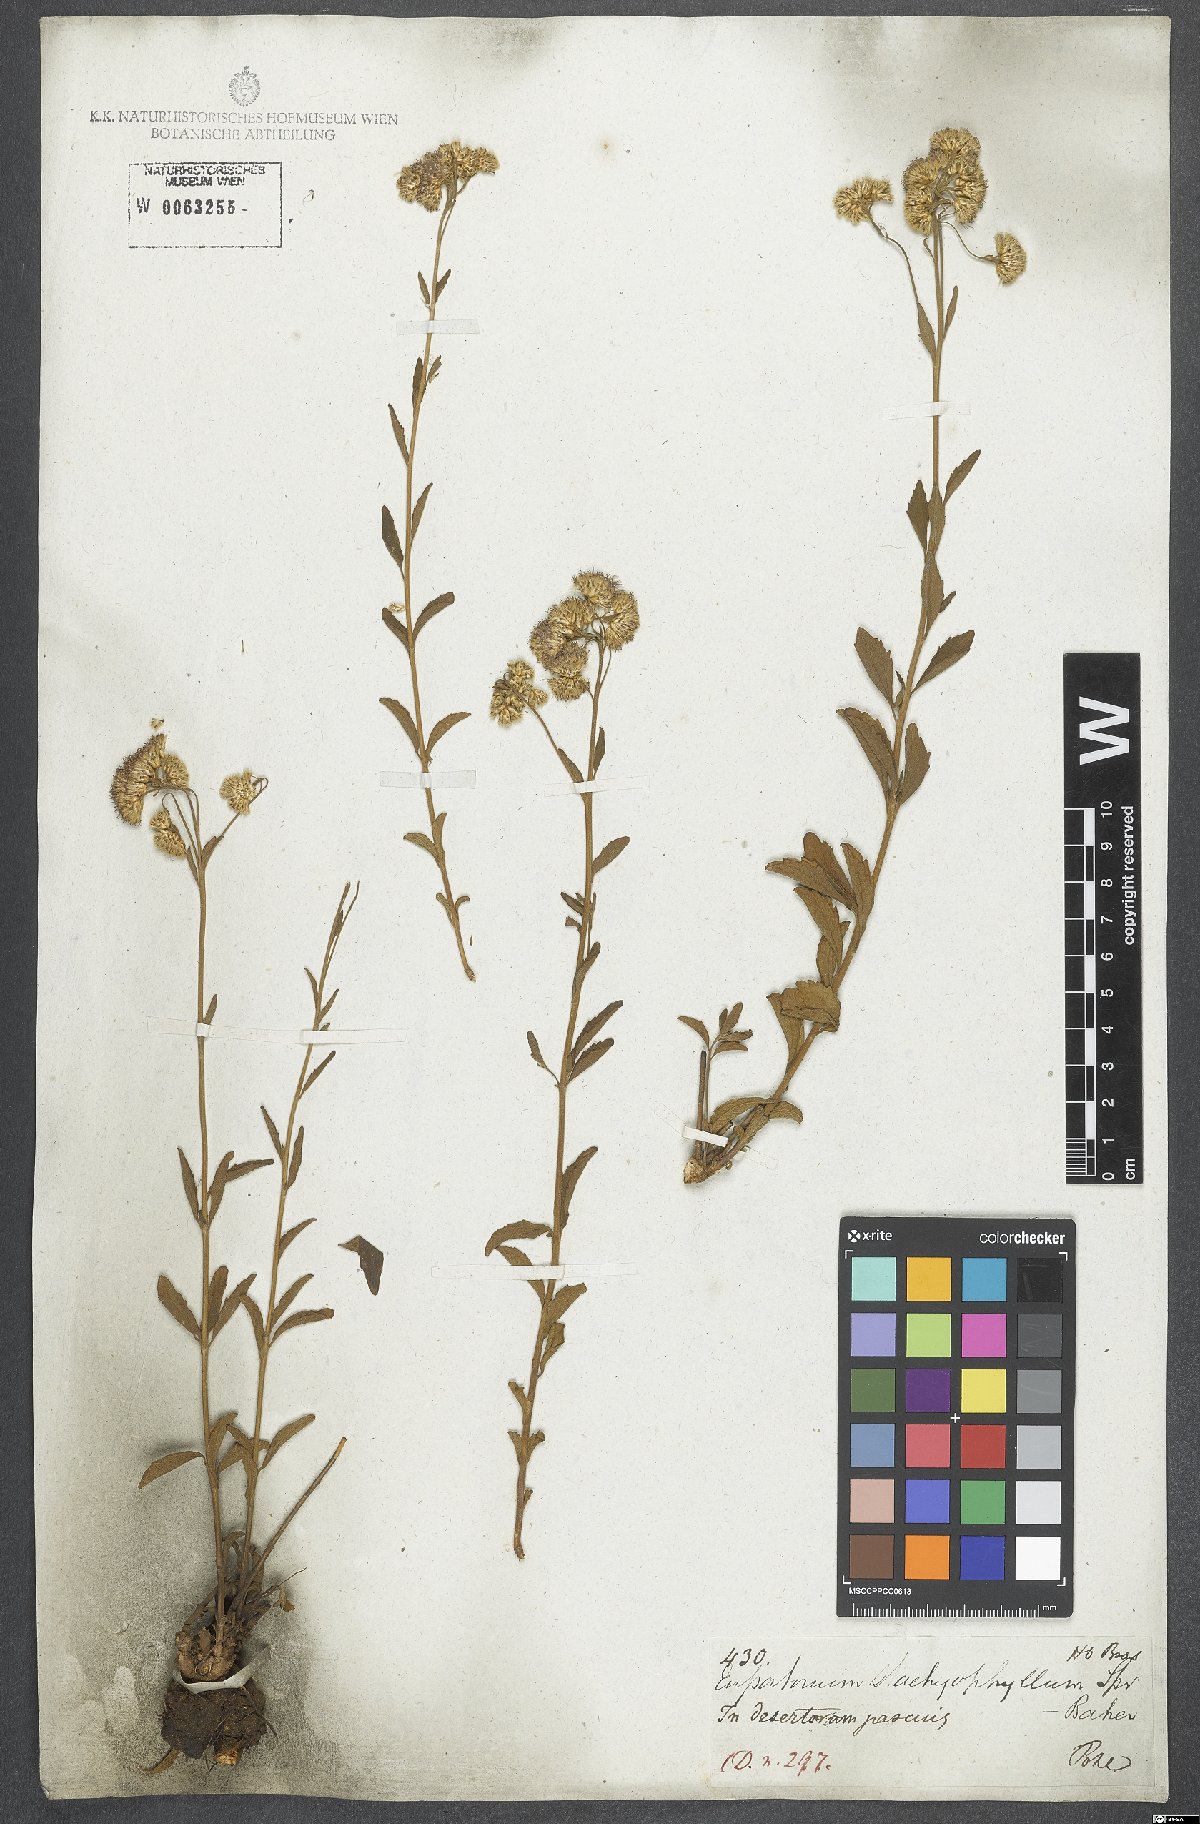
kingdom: Plantae
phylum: Tracheophyta
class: Magnoliopsida
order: Asterales
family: Asteraceae
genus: Chromolaena
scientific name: Chromolaena stachyophylla
